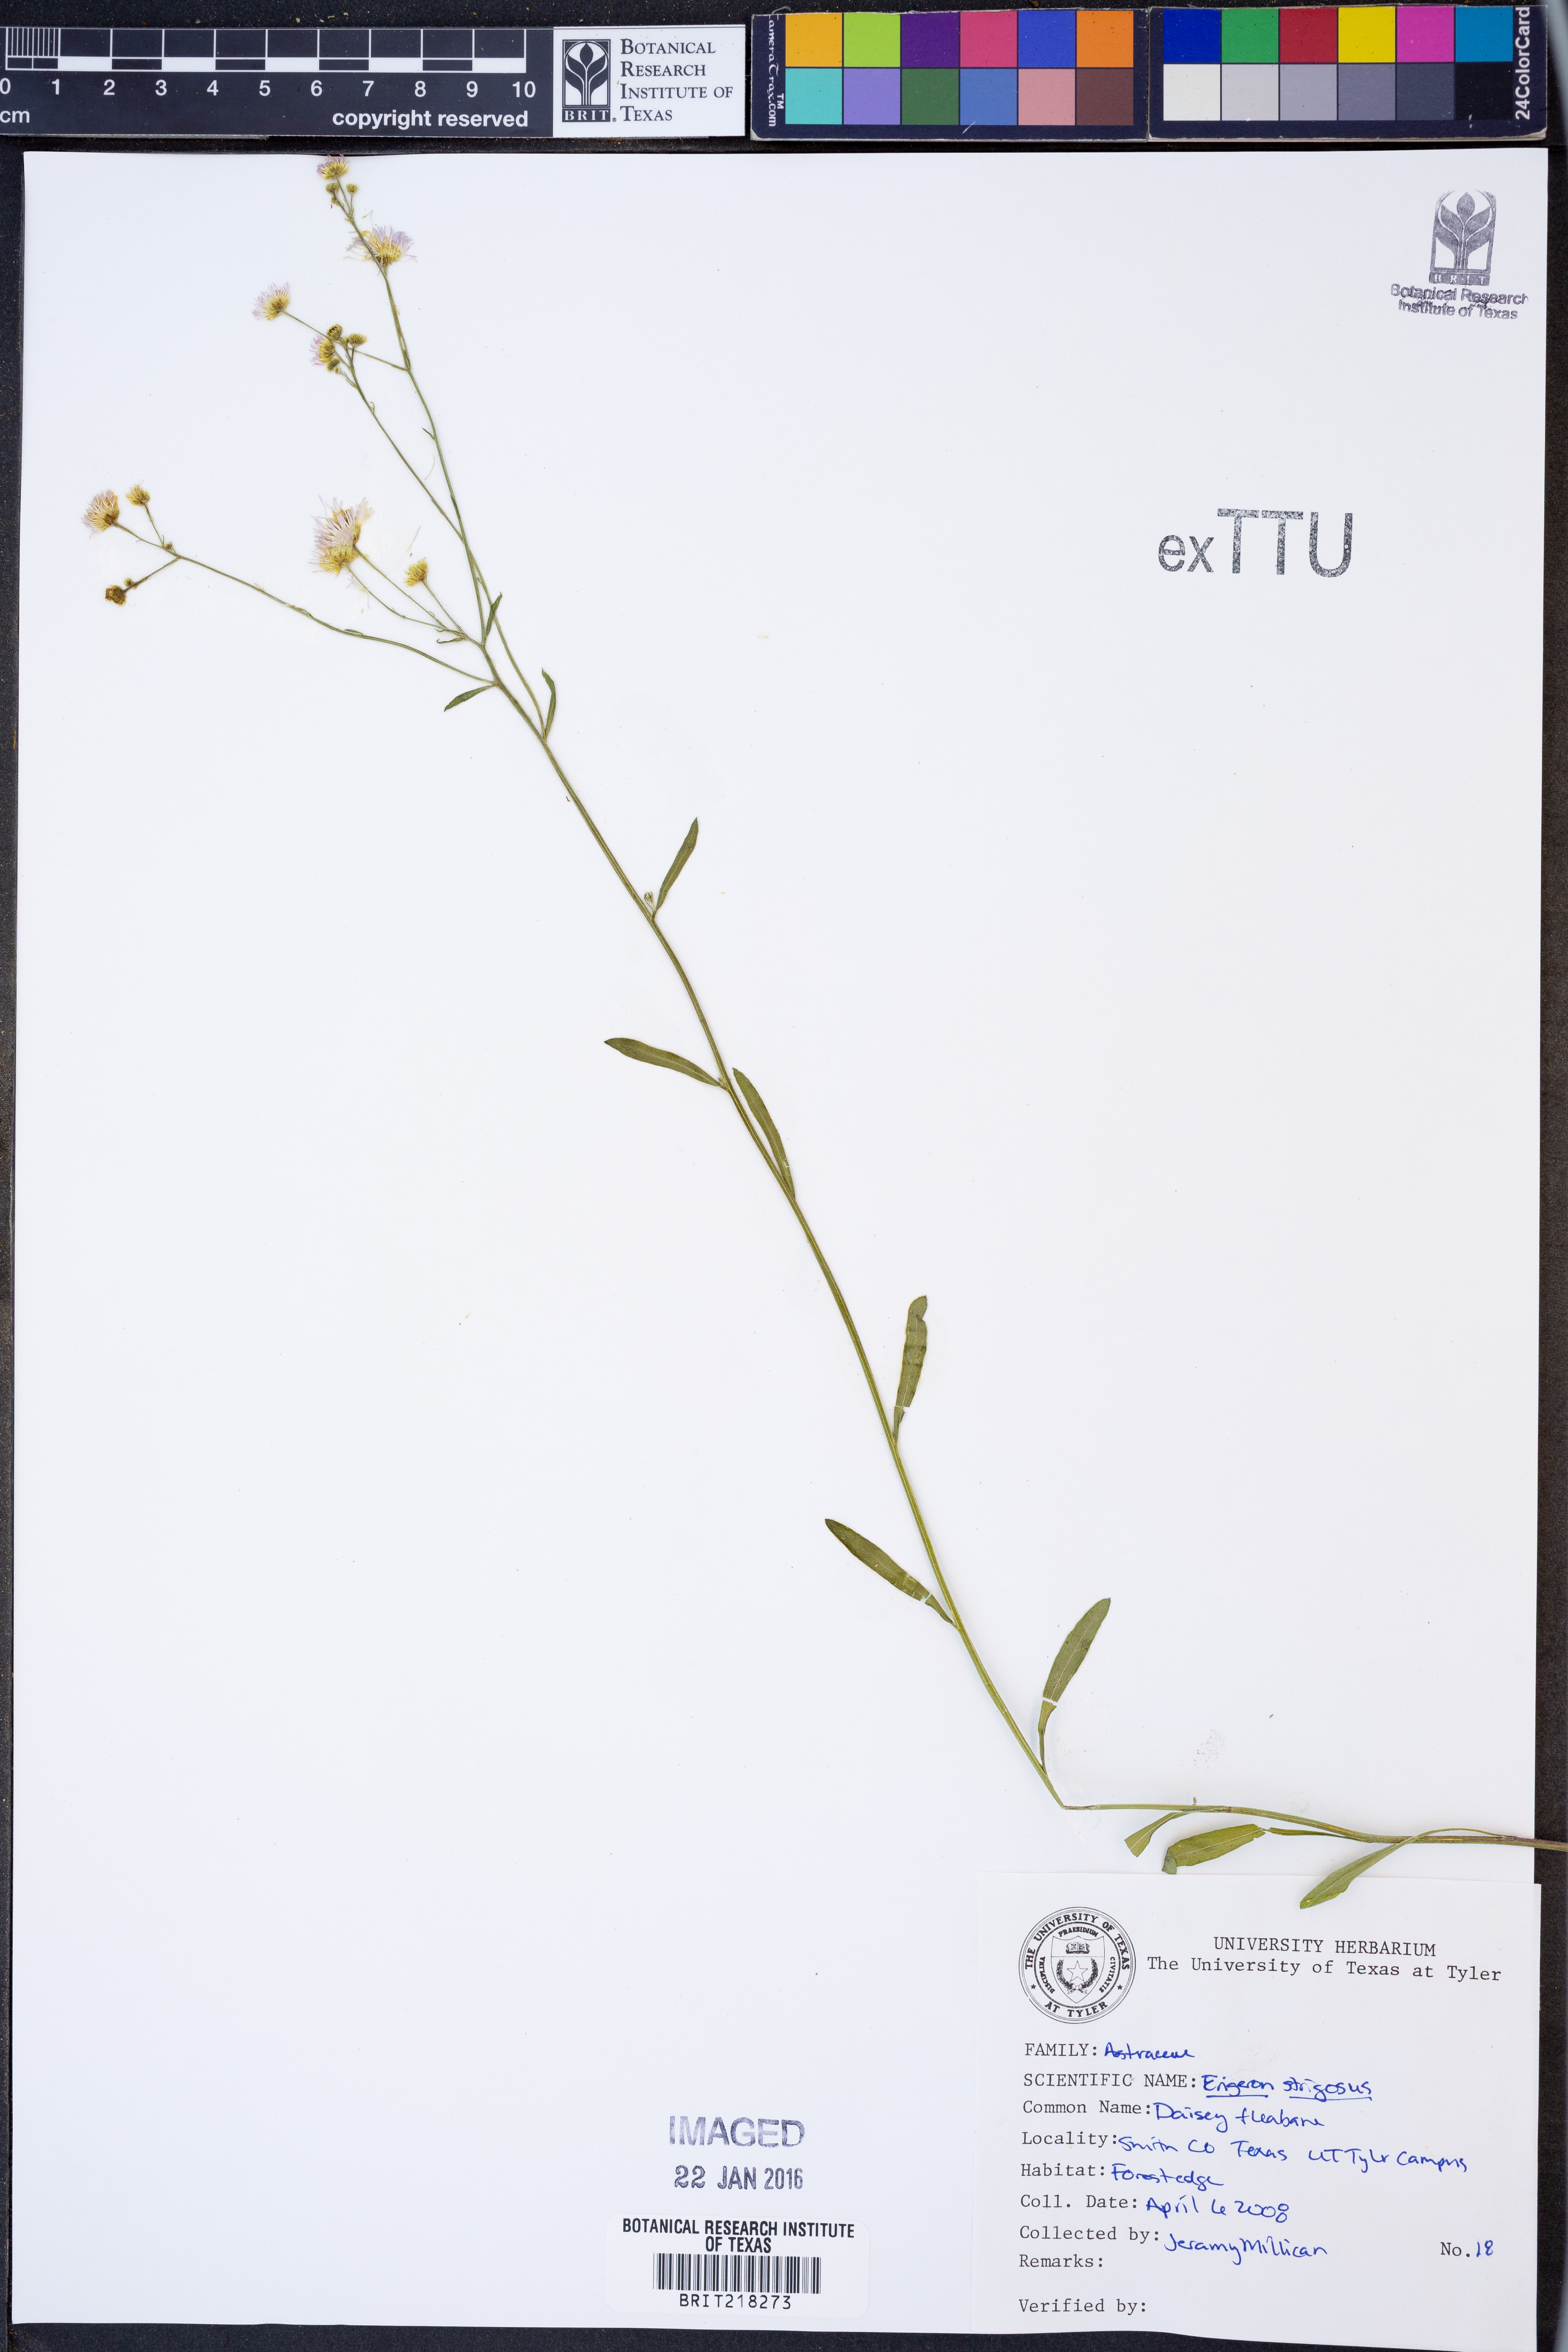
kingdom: Plantae
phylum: Tracheophyta
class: Magnoliopsida
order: Asterales
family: Asteraceae
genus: Erigeron
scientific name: Erigeron strigosus
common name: Common eastern fleabane
